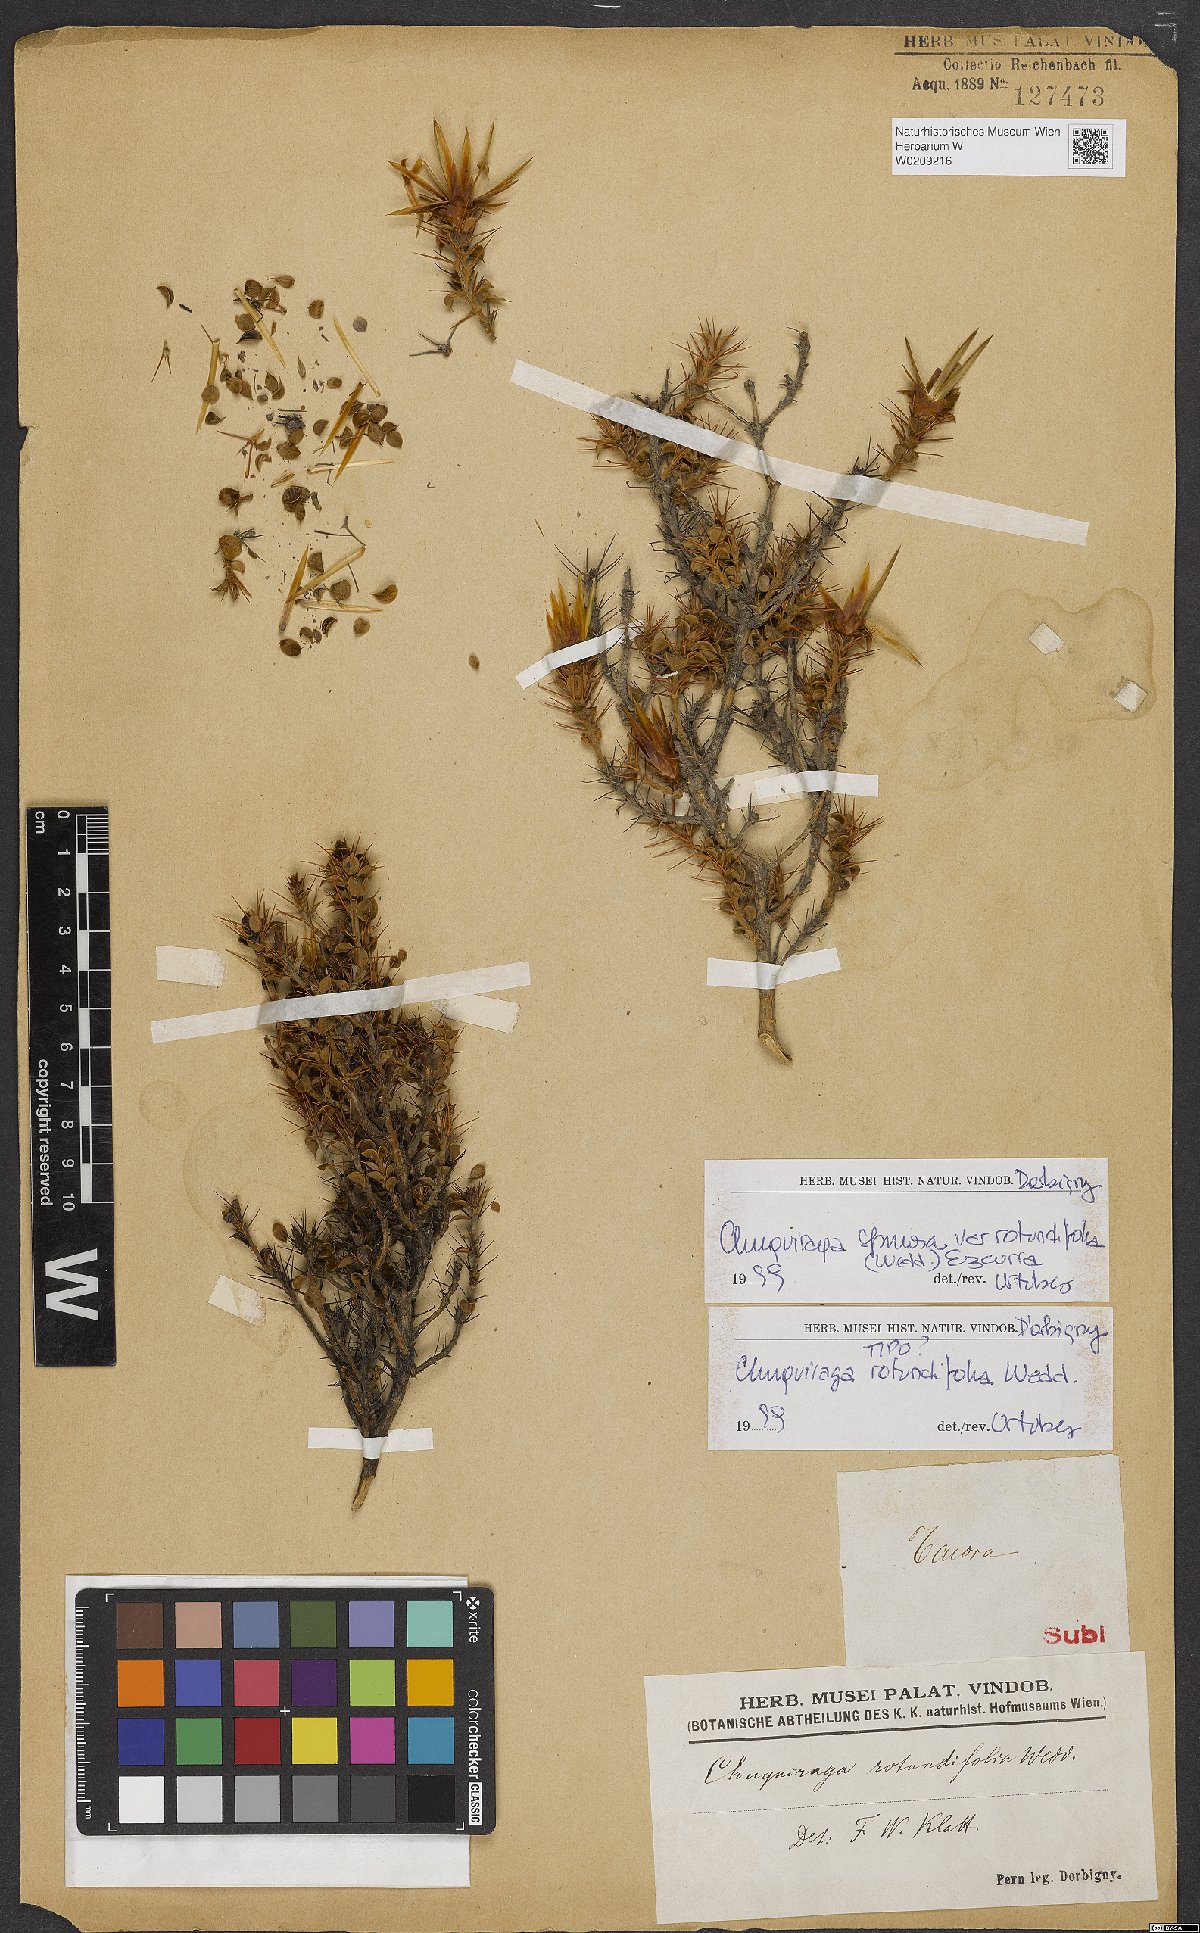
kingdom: Plantae
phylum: Tracheophyta
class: Magnoliopsida
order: Asterales
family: Asteraceae
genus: Chuquiraga
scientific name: Chuquiraga spinosa
